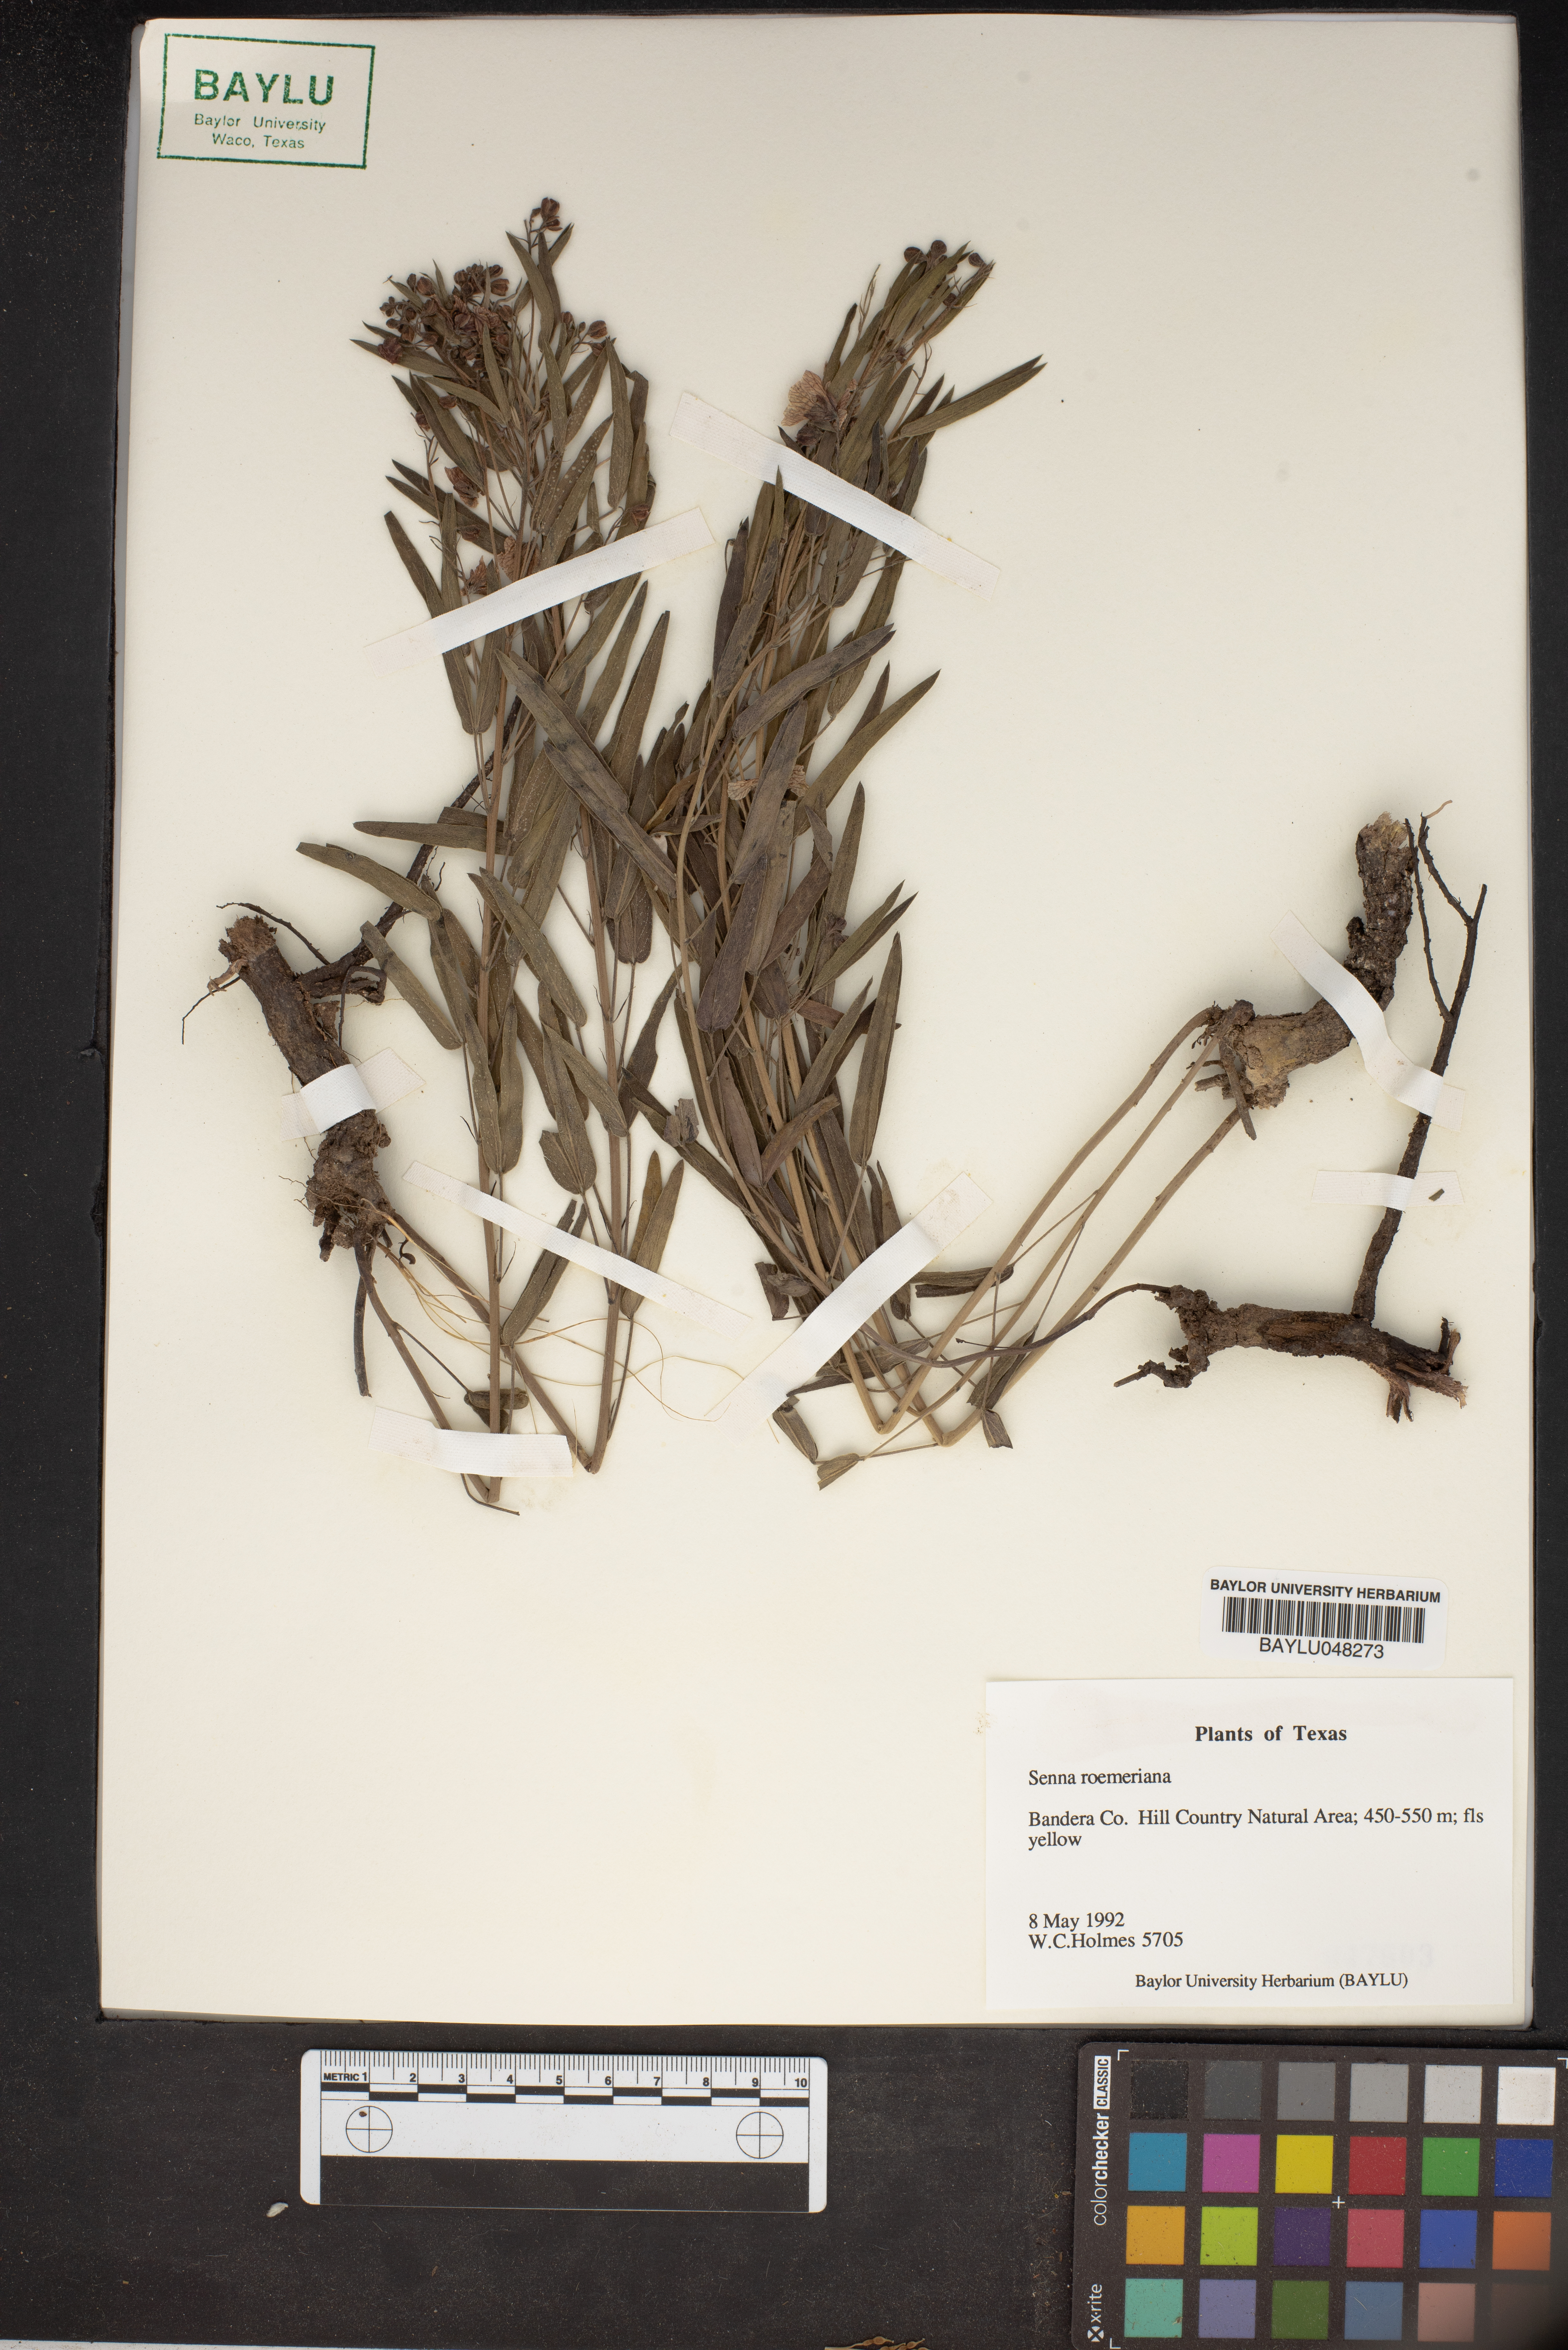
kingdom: Plantae
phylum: Tracheophyta
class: Magnoliopsida
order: Fabales
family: Fabaceae
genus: Senna
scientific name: Senna roemeriana
